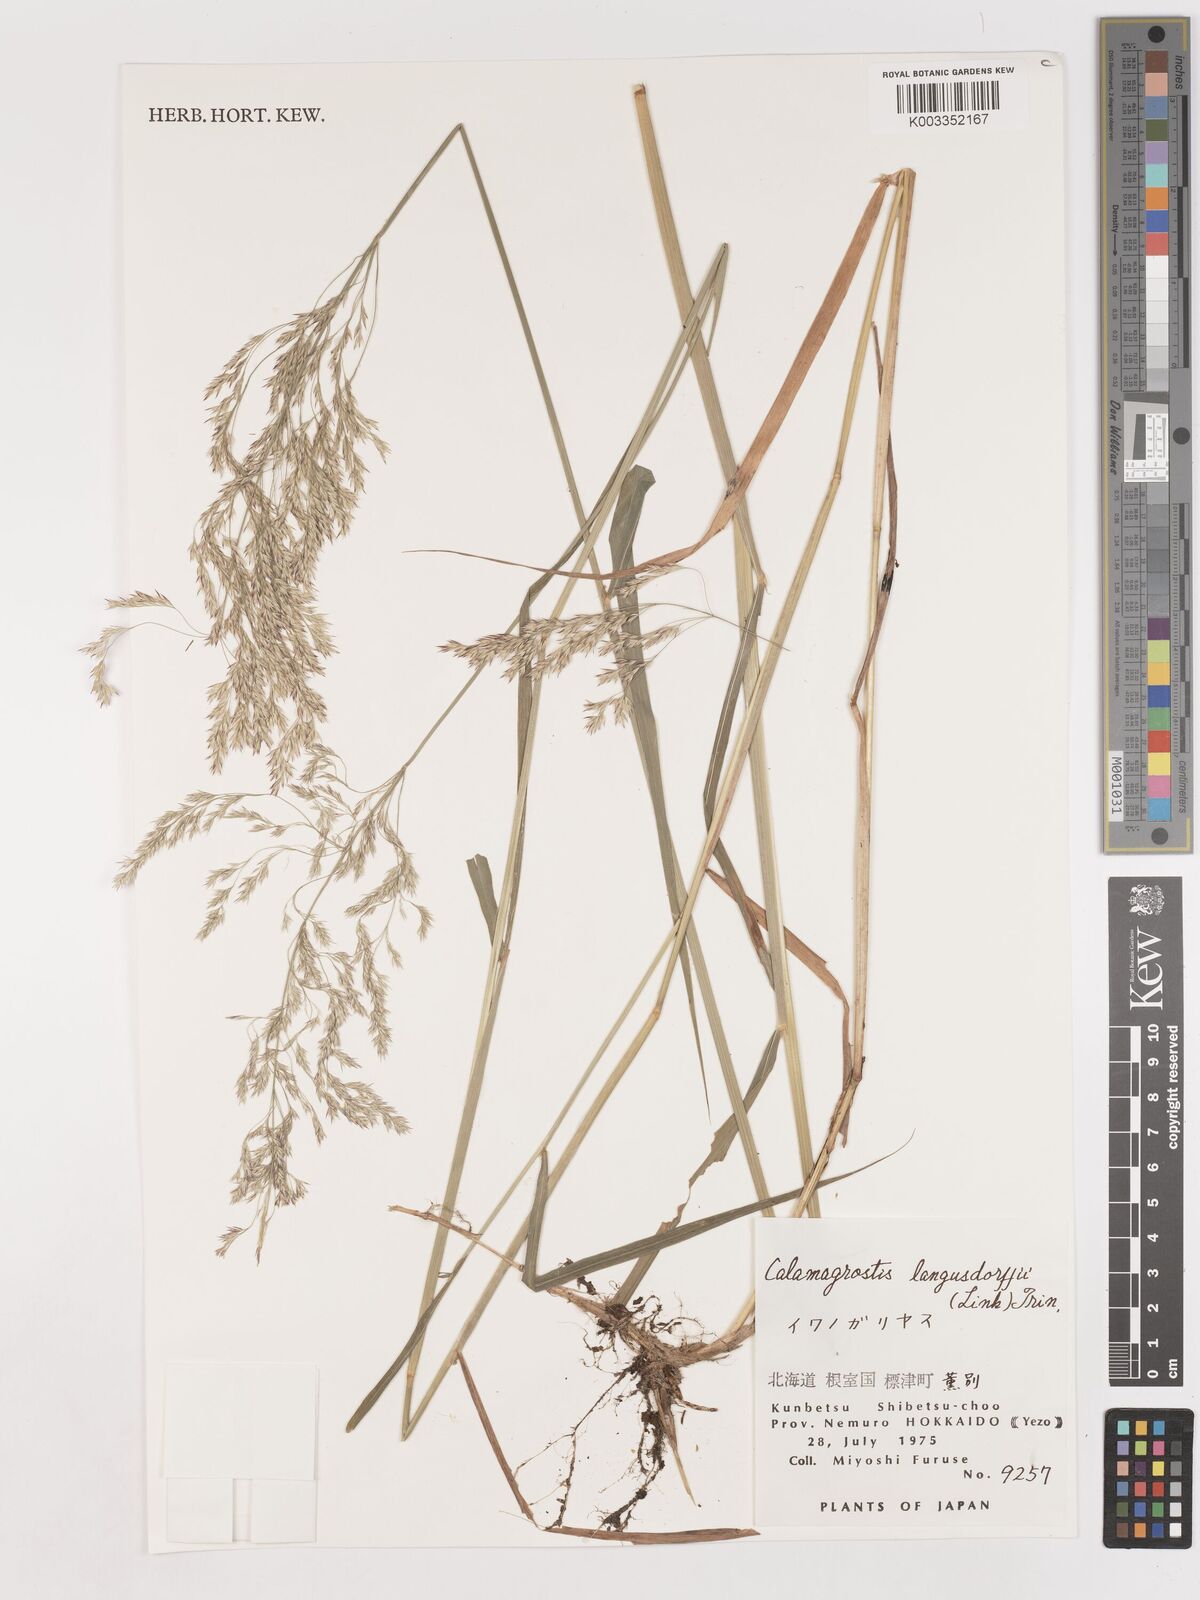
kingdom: Plantae
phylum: Tracheophyta
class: Liliopsida
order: Poales
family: Poaceae
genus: Calamagrostis
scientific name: Calamagrostis purpurea
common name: Scandinavian small-reed
